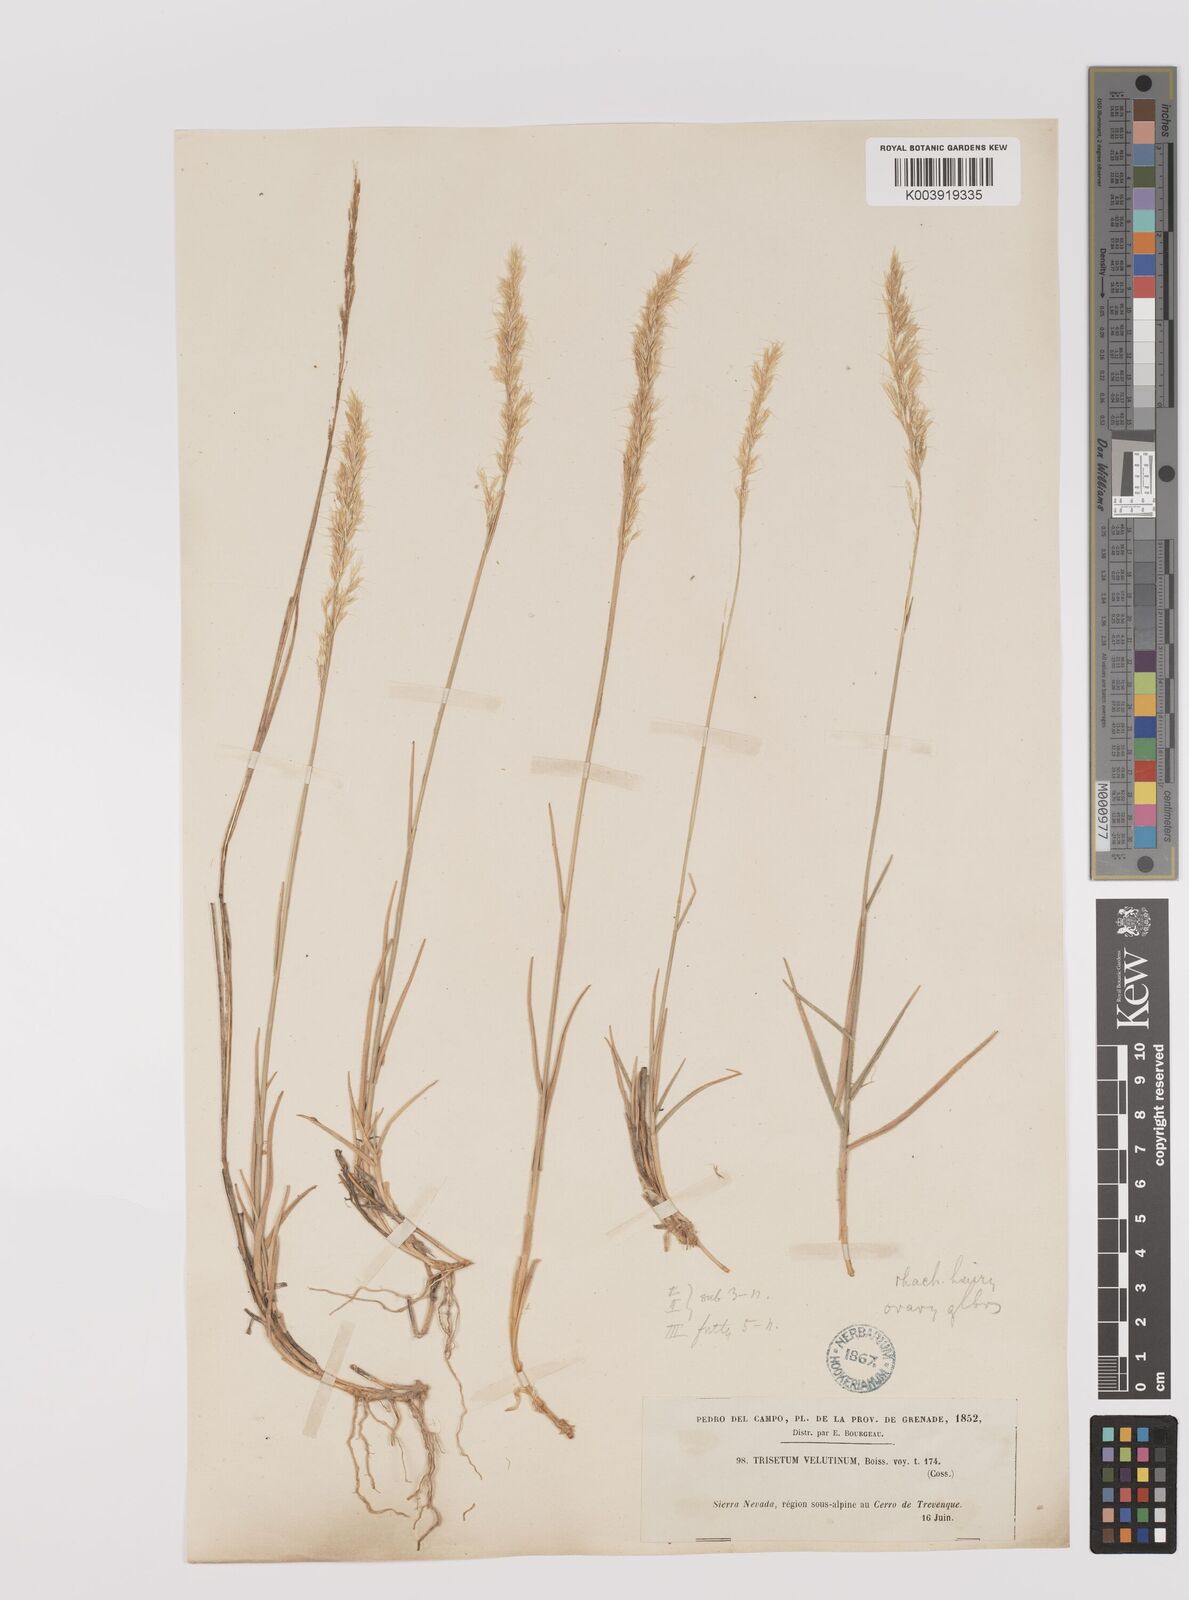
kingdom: Plantae
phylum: Tracheophyta
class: Liliopsida
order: Poales
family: Poaceae
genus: Trisetum
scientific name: Trisetum velutinum
